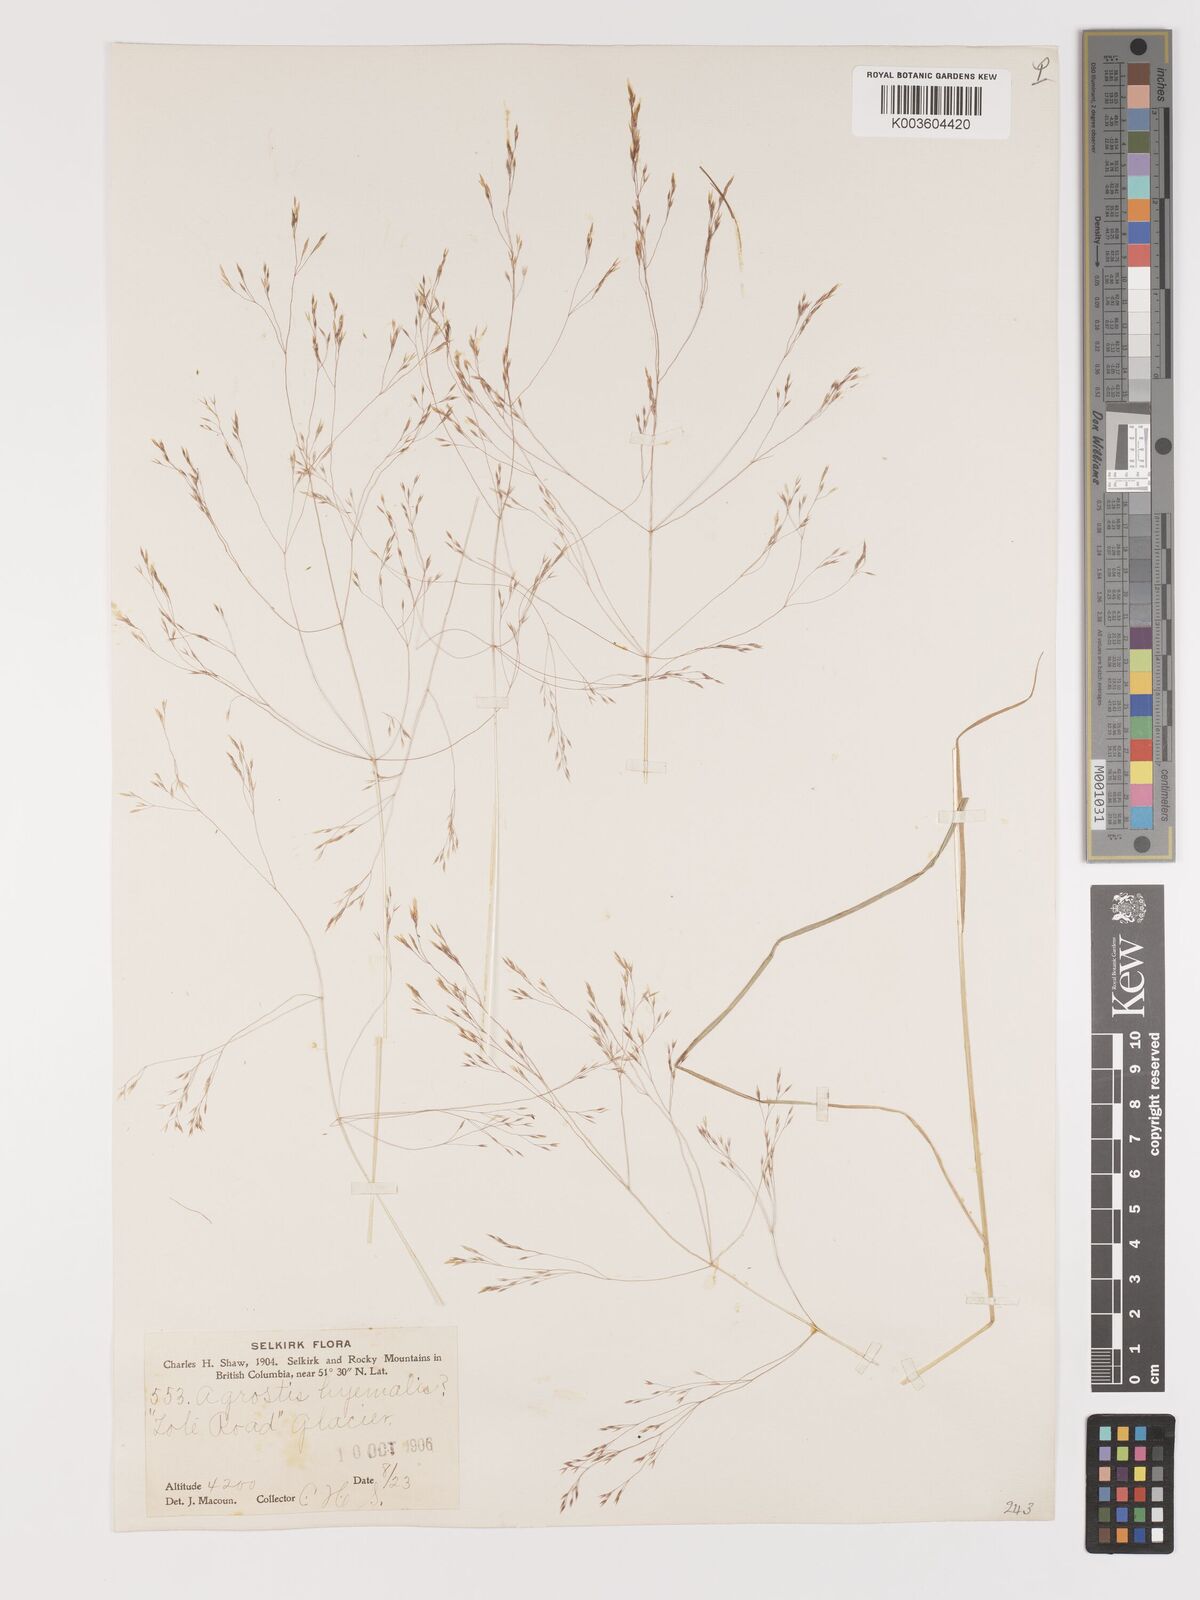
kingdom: Plantae
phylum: Tracheophyta
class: Liliopsida
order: Poales
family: Poaceae
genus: Agrostis
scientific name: Agrostis hyemalis
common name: Small bent
